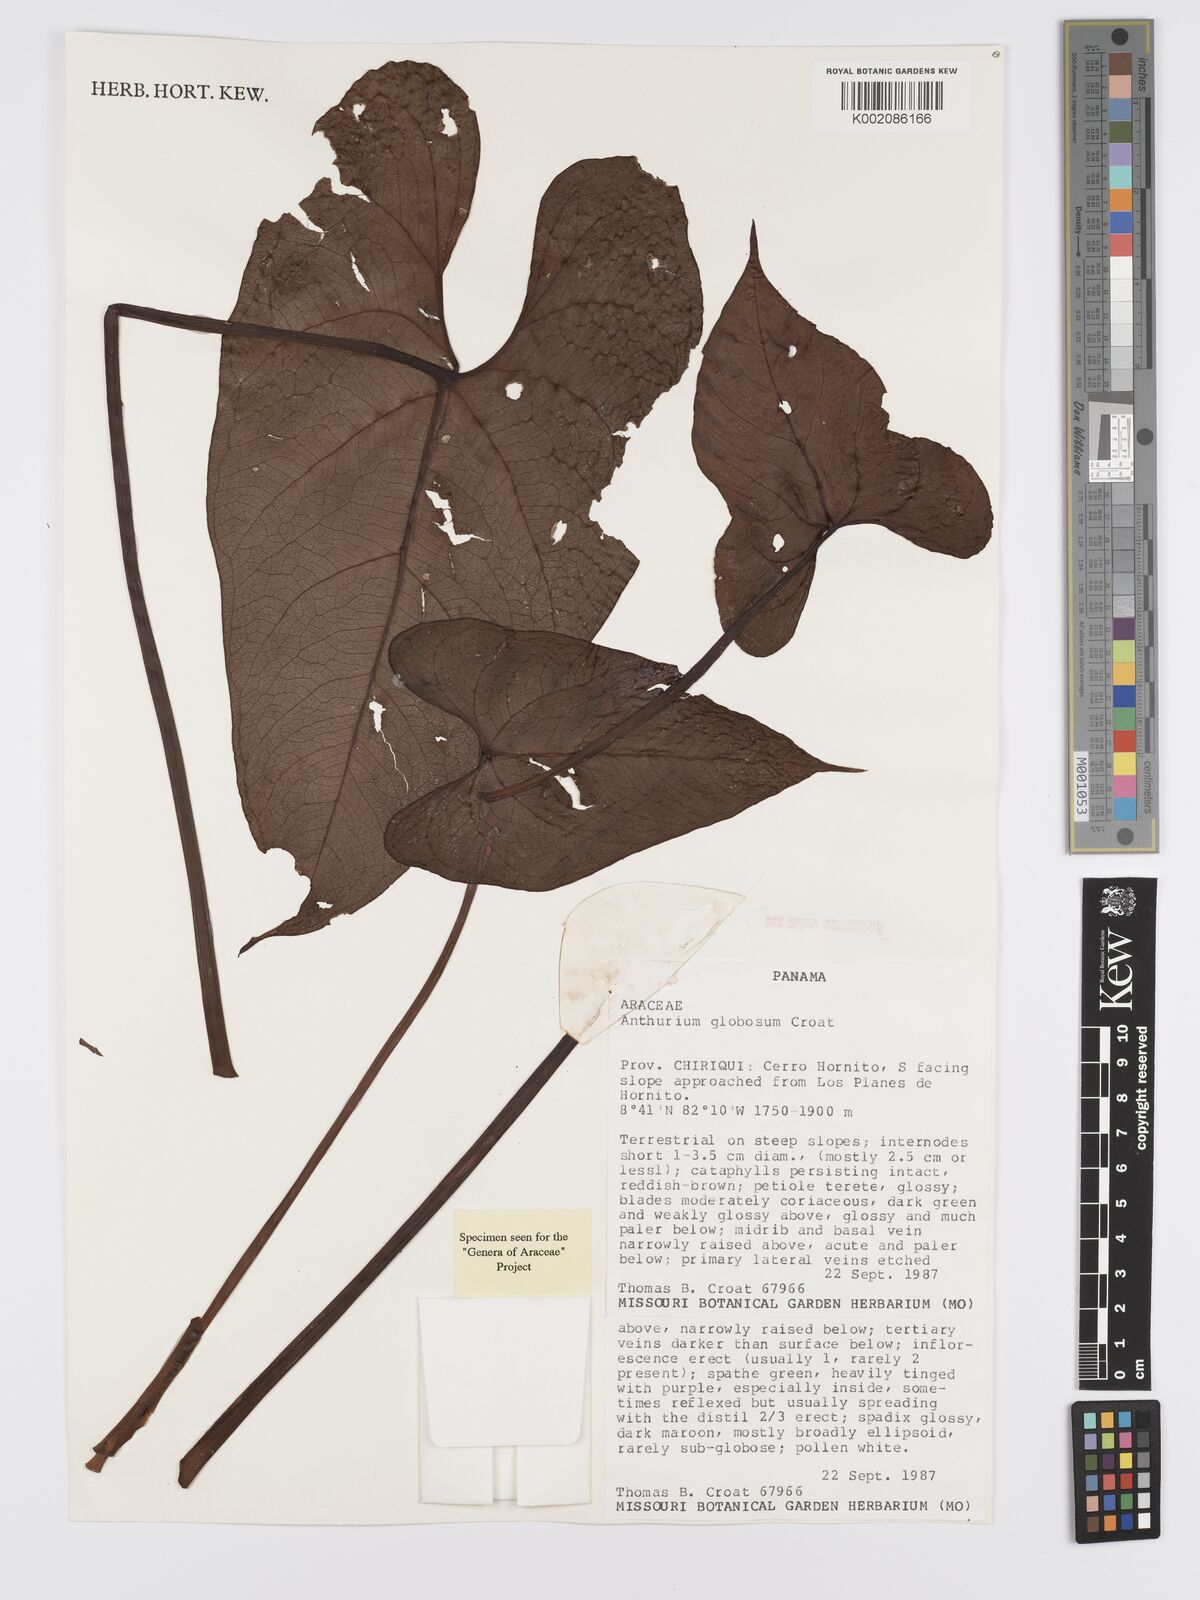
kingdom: Plantae
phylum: Tracheophyta
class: Liliopsida
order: Alismatales
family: Araceae
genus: Anthurium
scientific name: Anthurium globosum
